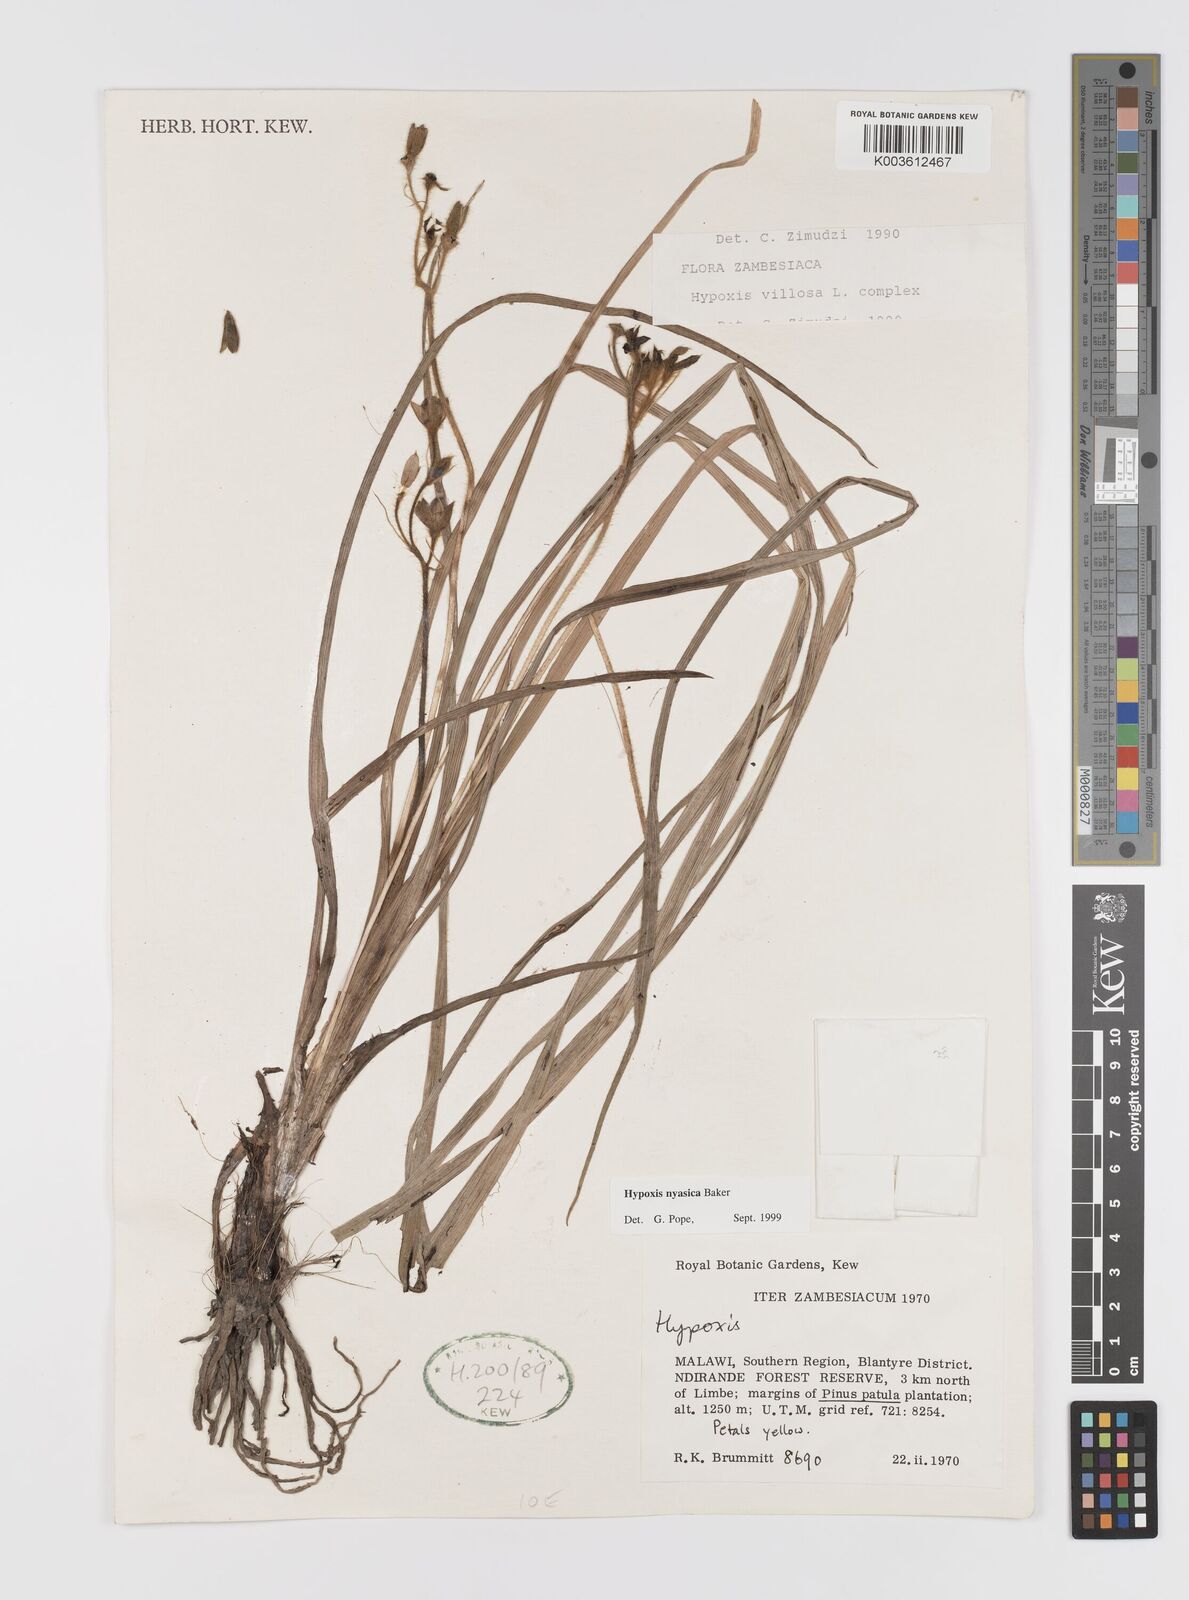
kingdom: Plantae
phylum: Tracheophyta
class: Liliopsida
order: Asparagales
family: Hypoxidaceae
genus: Hypoxis
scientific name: Hypoxis nyasica
